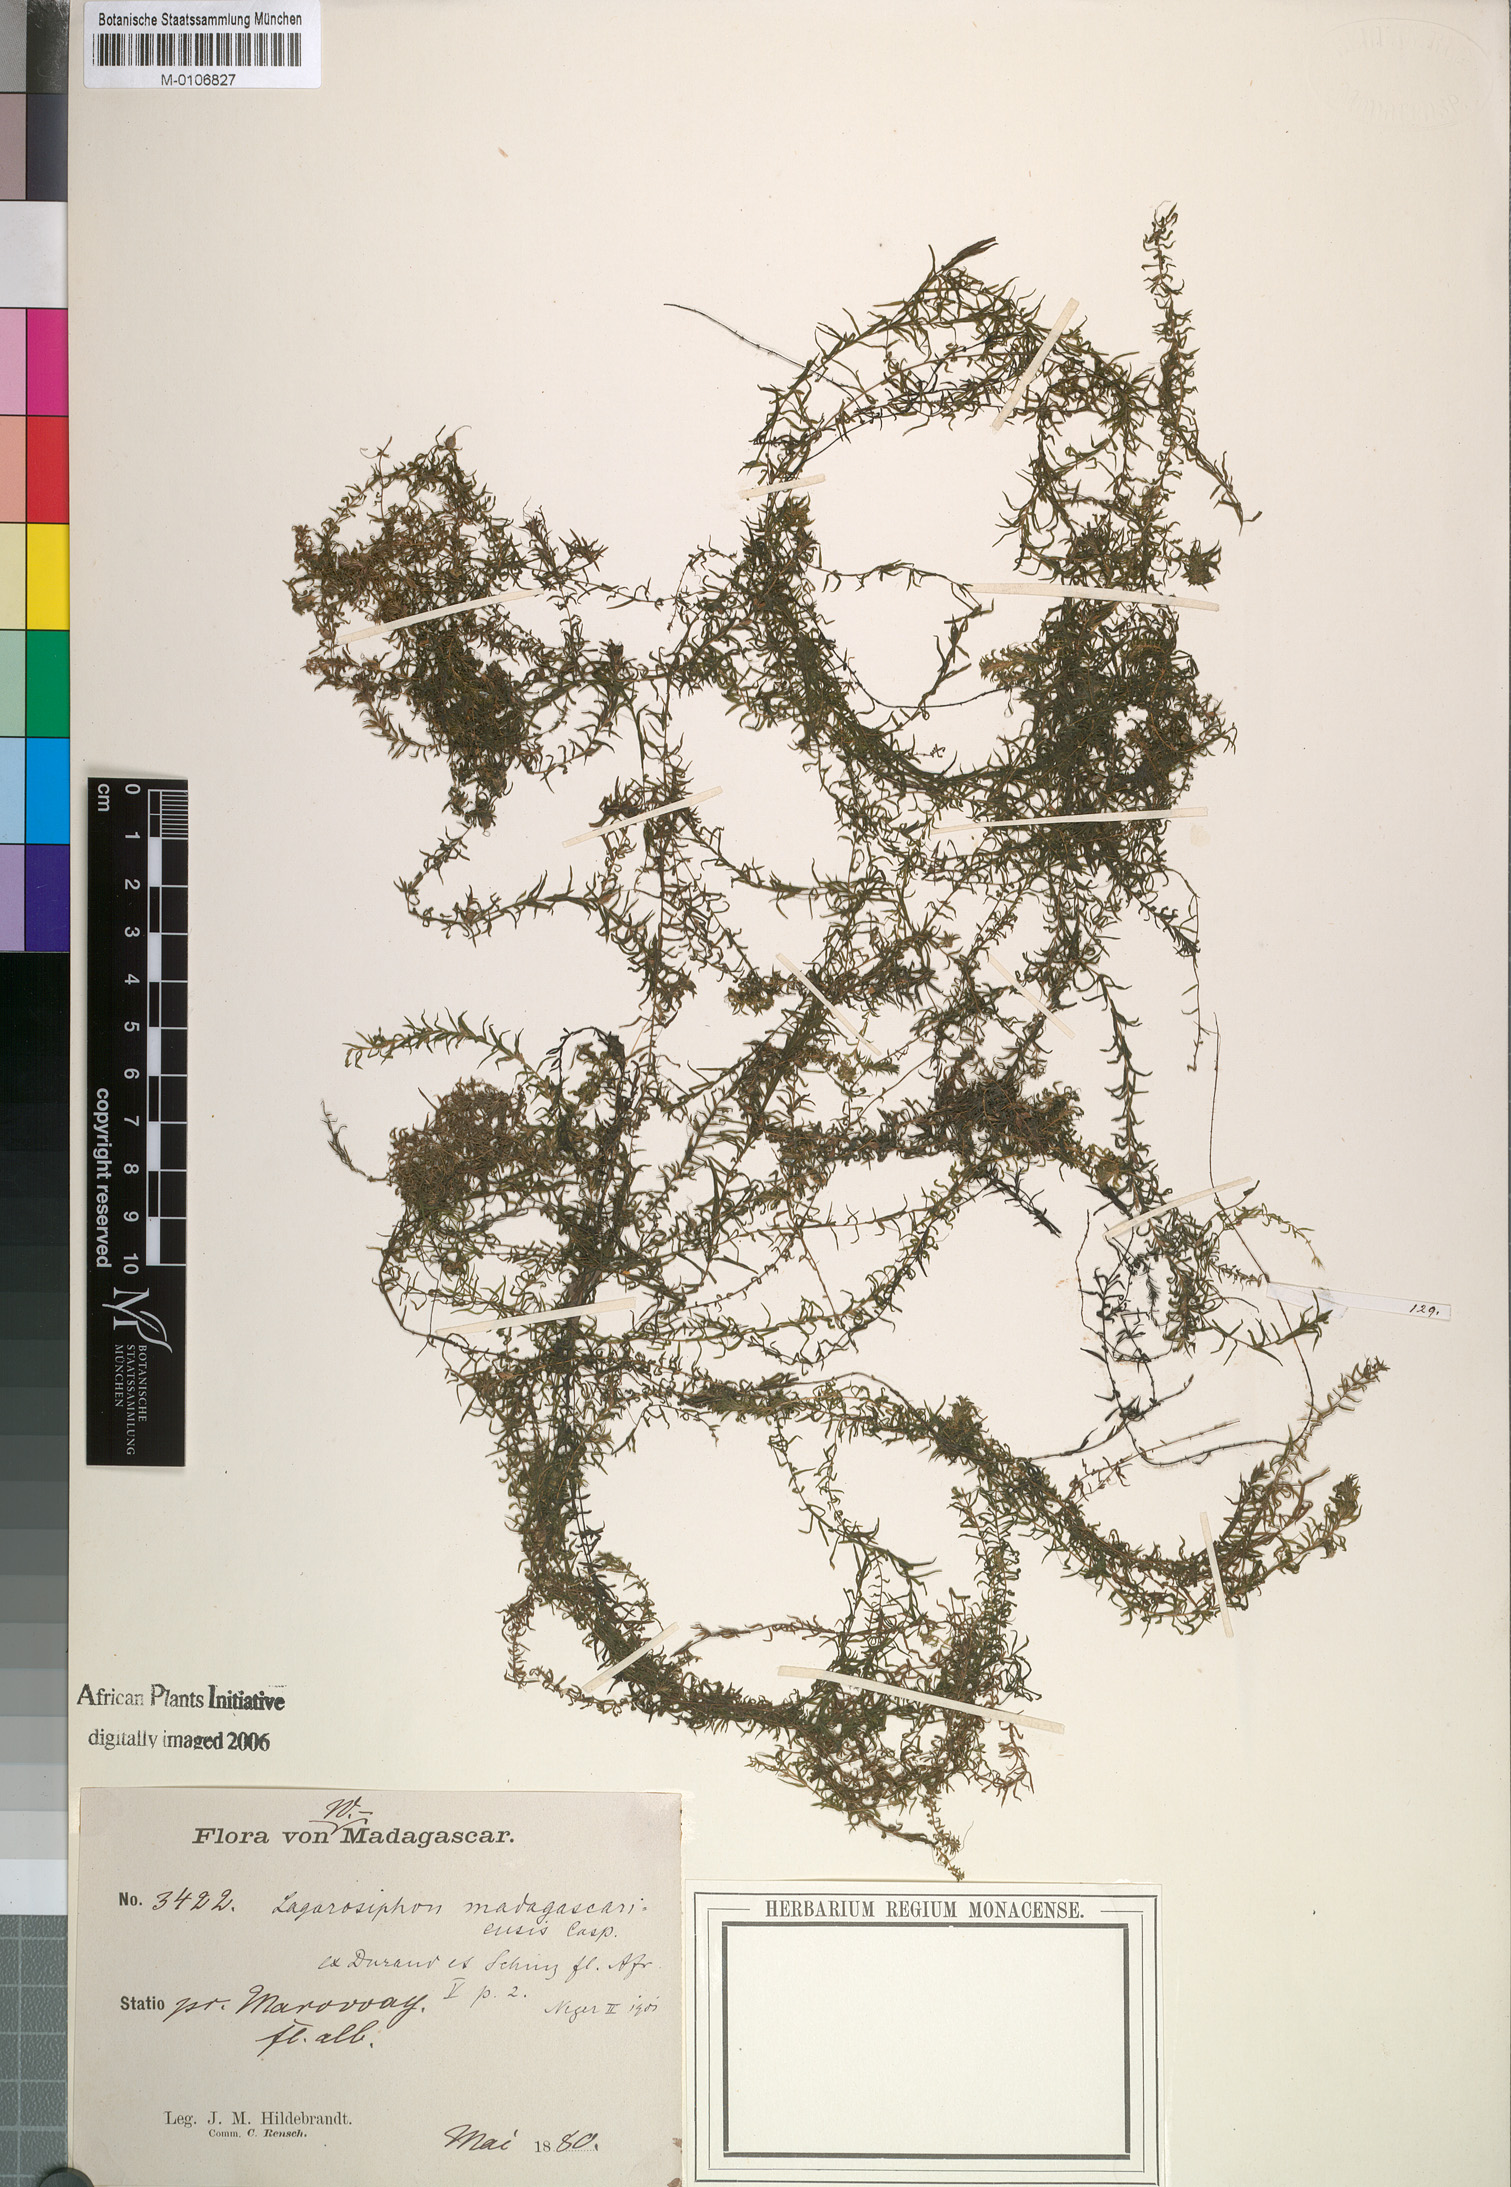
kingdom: Plantae
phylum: Tracheophyta
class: Liliopsida
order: Alismatales
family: Hydrocharitaceae
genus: Lagarosiphon
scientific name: Lagarosiphon madagascariensis
